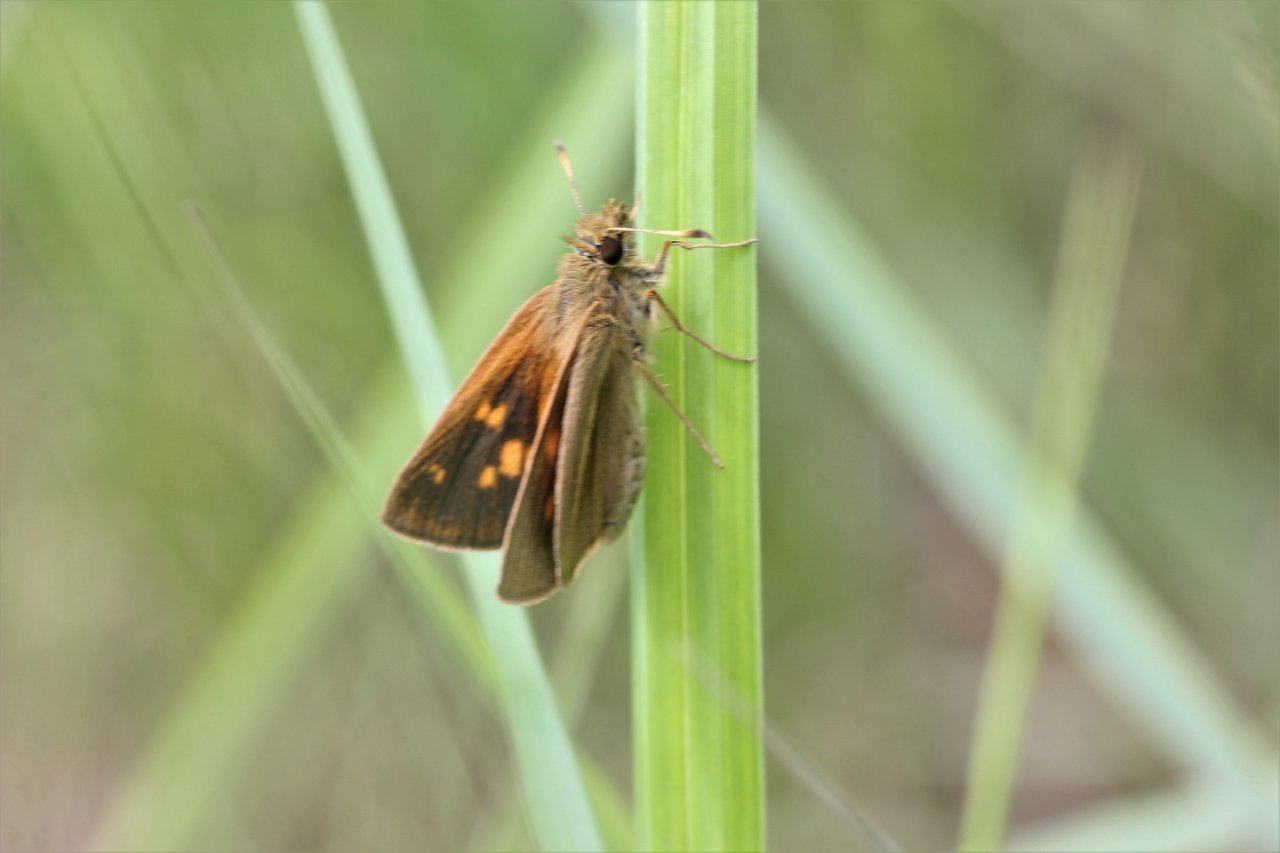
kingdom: Animalia
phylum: Arthropoda
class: Insecta
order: Lepidoptera
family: Hesperiidae
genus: Poanes
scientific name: Poanes viator
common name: Broad-winged Skipper
